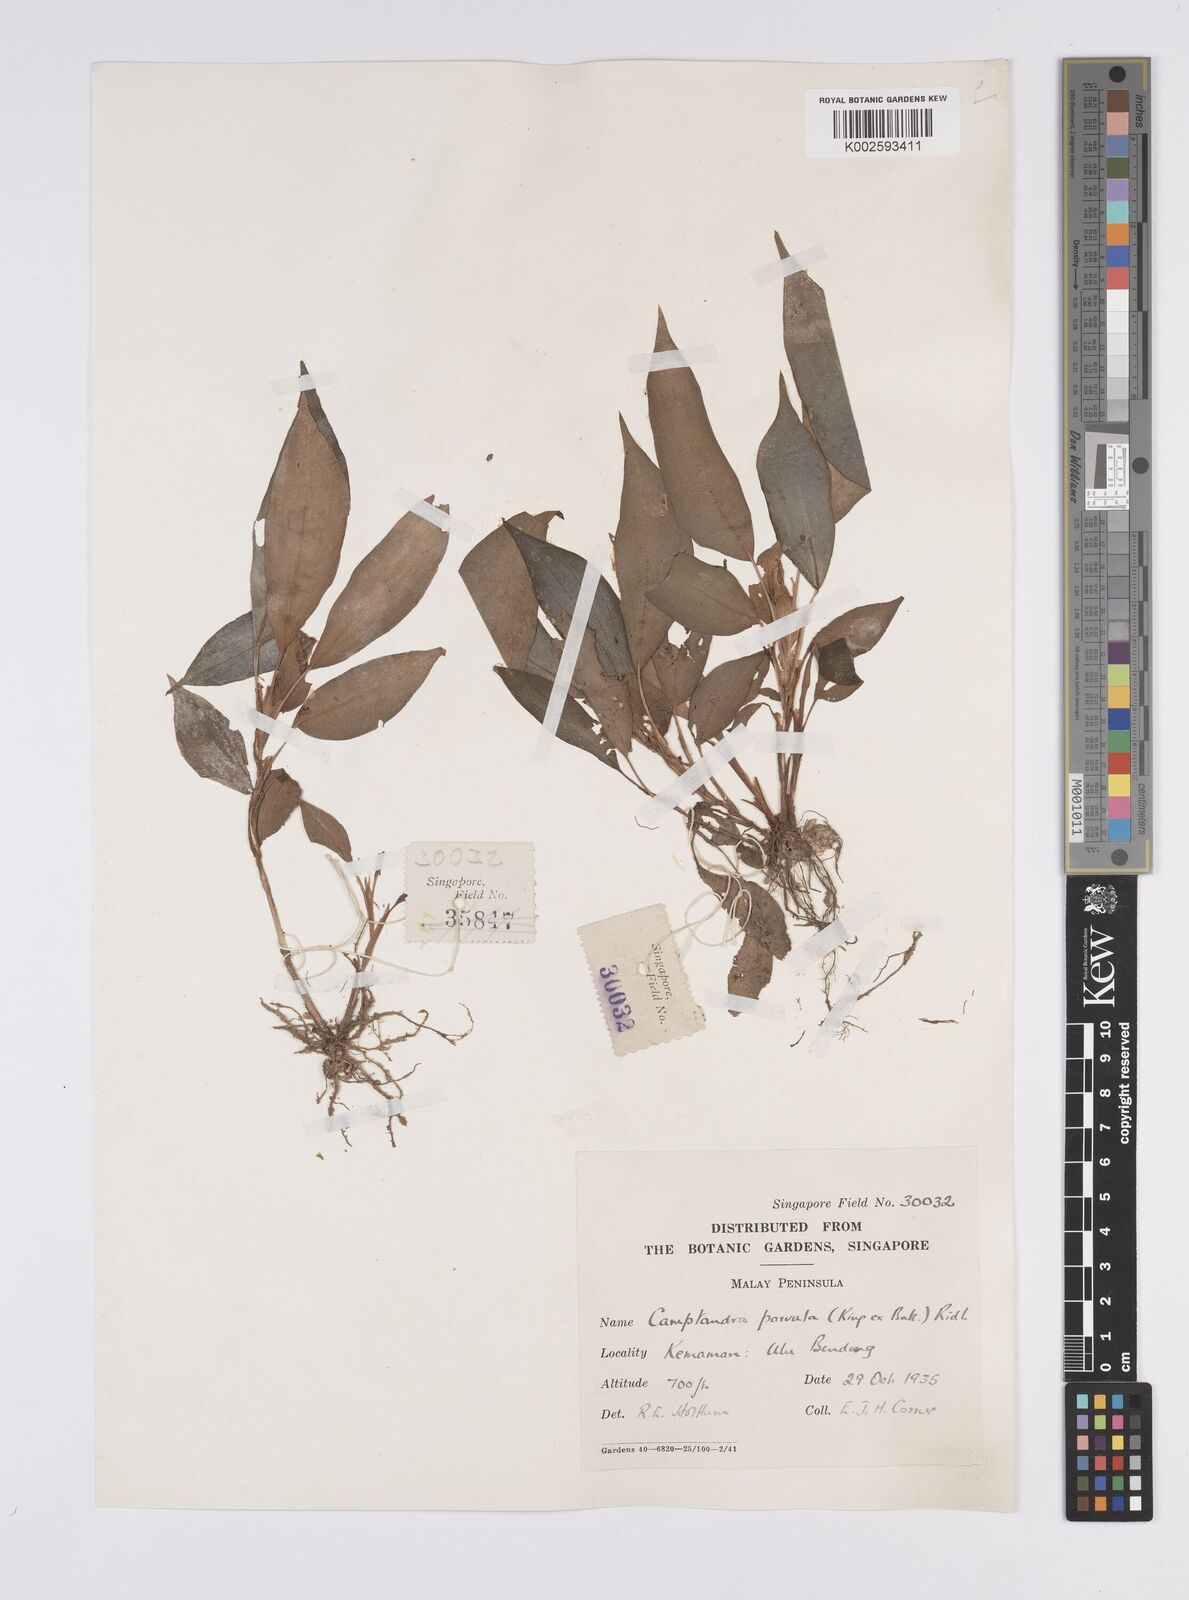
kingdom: Plantae
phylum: Tracheophyta
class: Liliopsida
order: Zingiberales
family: Zingiberaceae
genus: Camptandra
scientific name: Camptandra parvula
